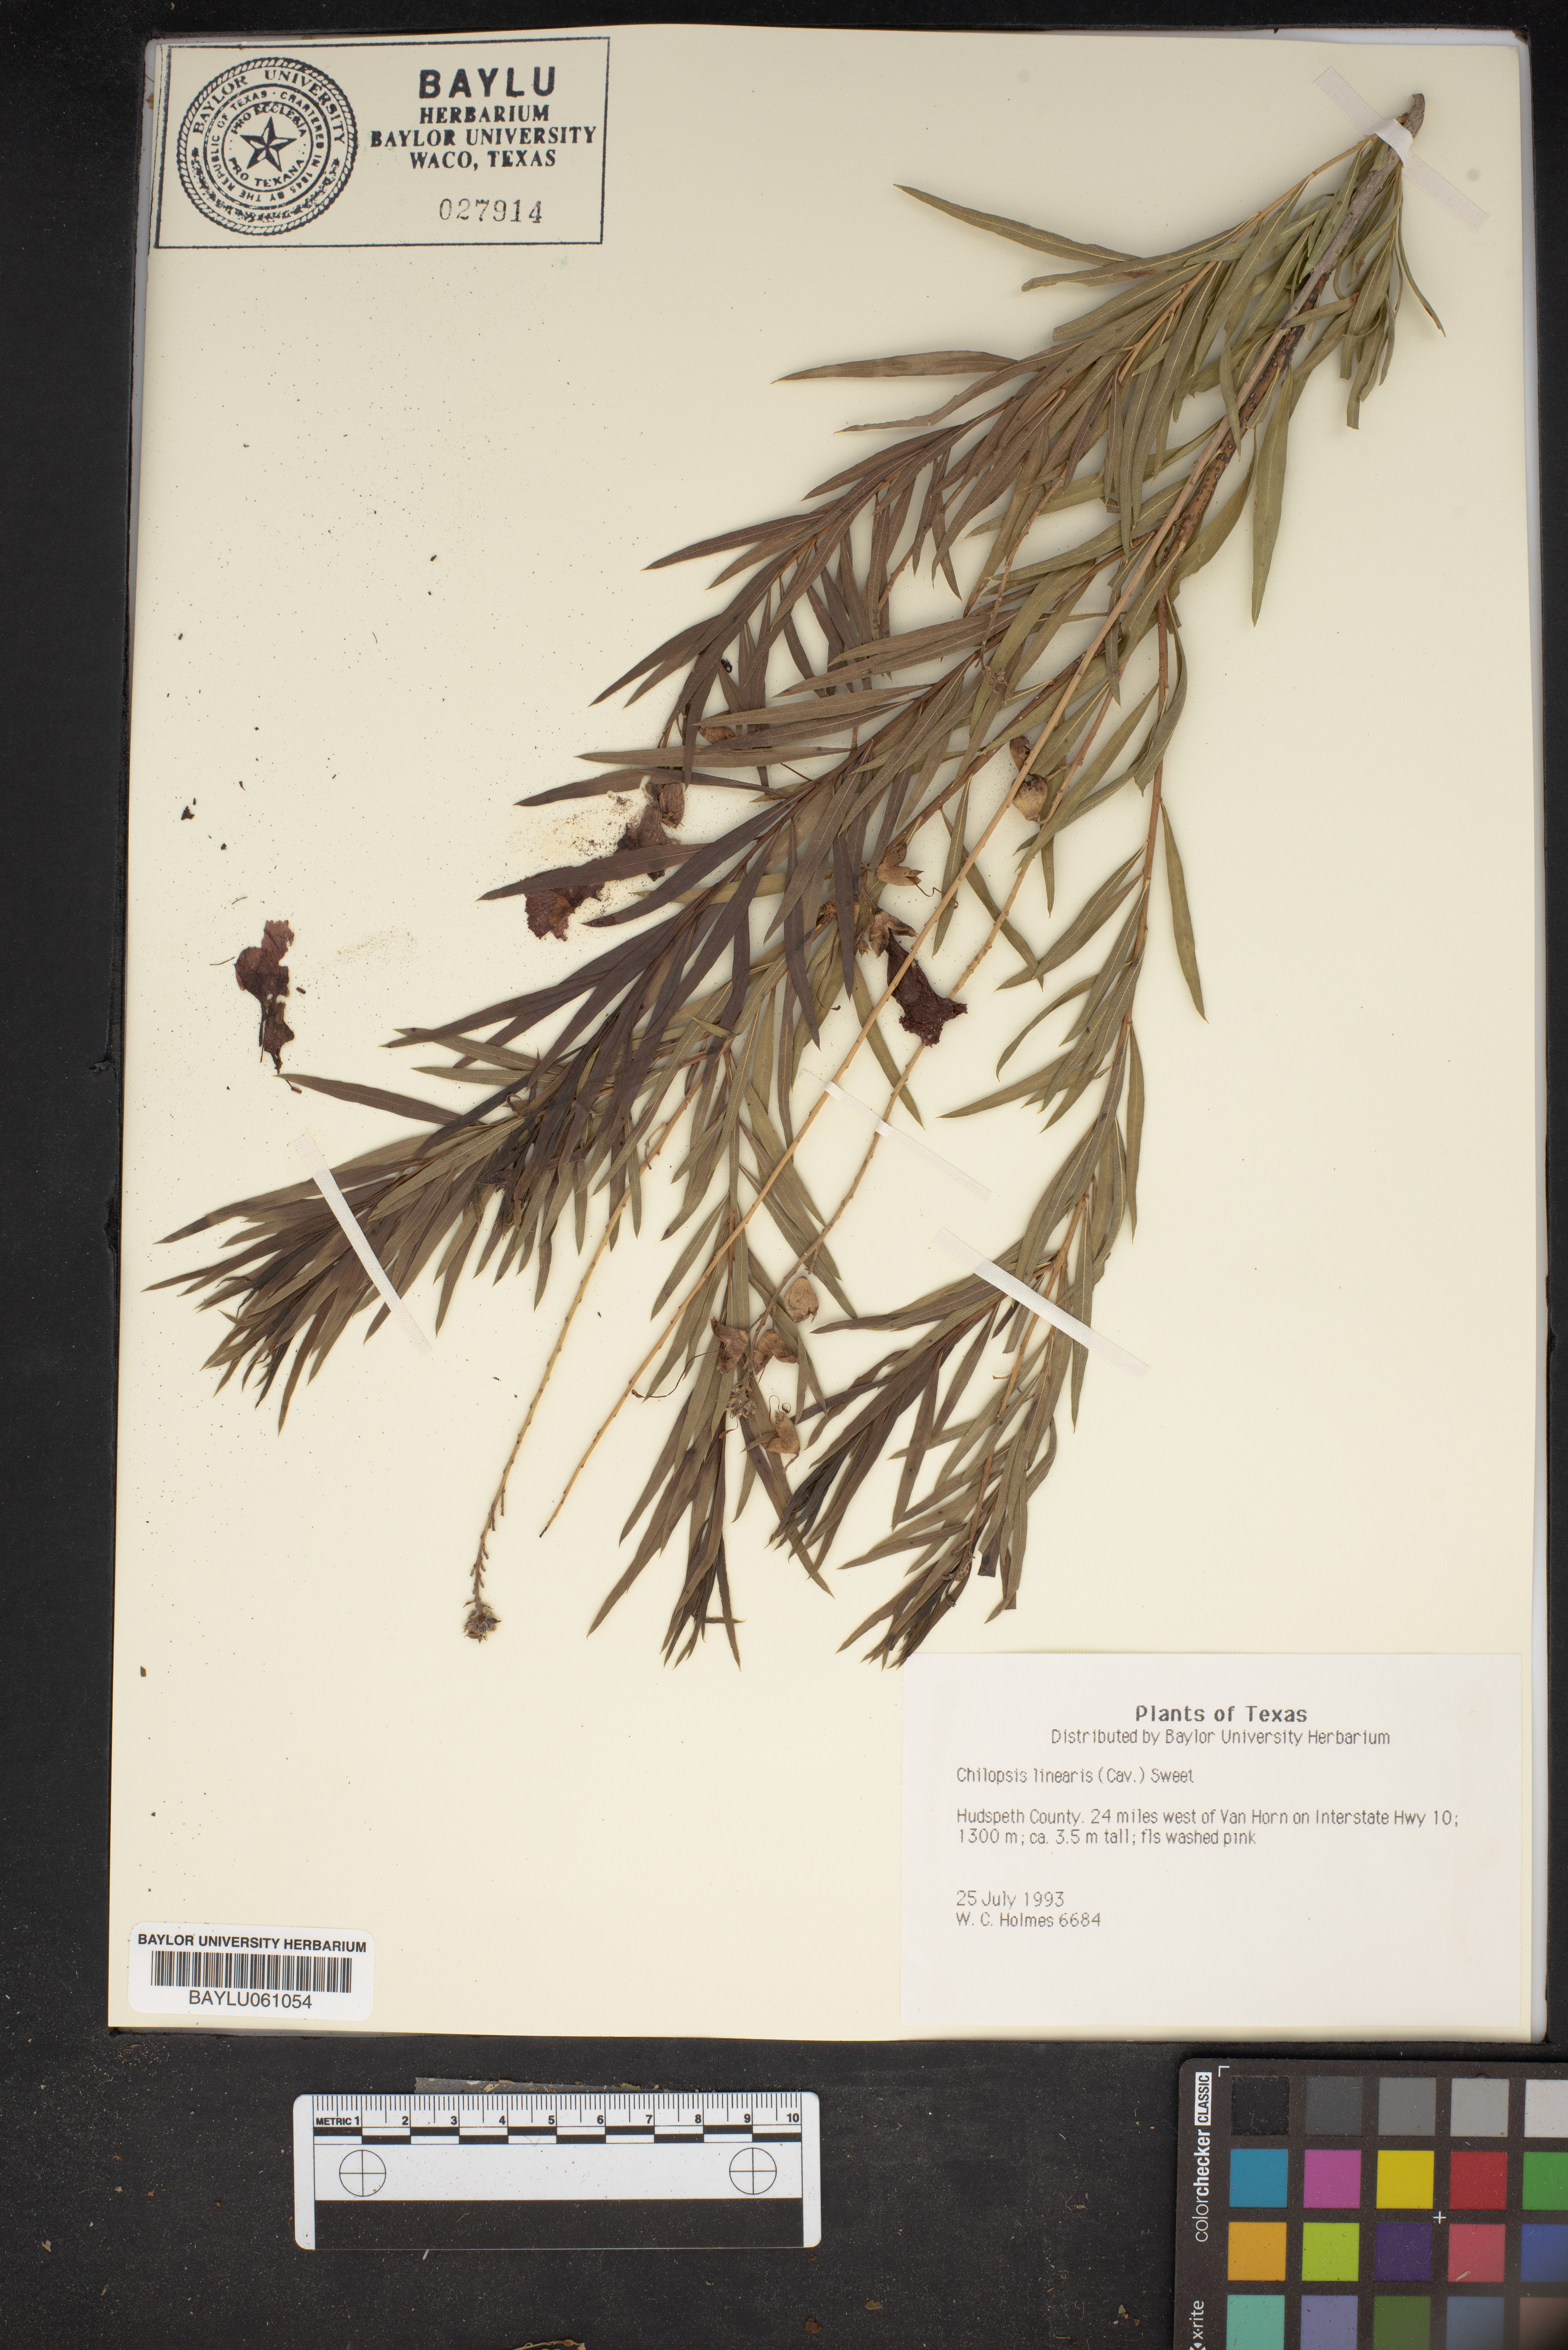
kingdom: Plantae
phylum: Tracheophyta
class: Magnoliopsida
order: Lamiales
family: Bignoniaceae
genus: Chilopsis
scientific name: Chilopsis linearis
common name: Desert-willow
